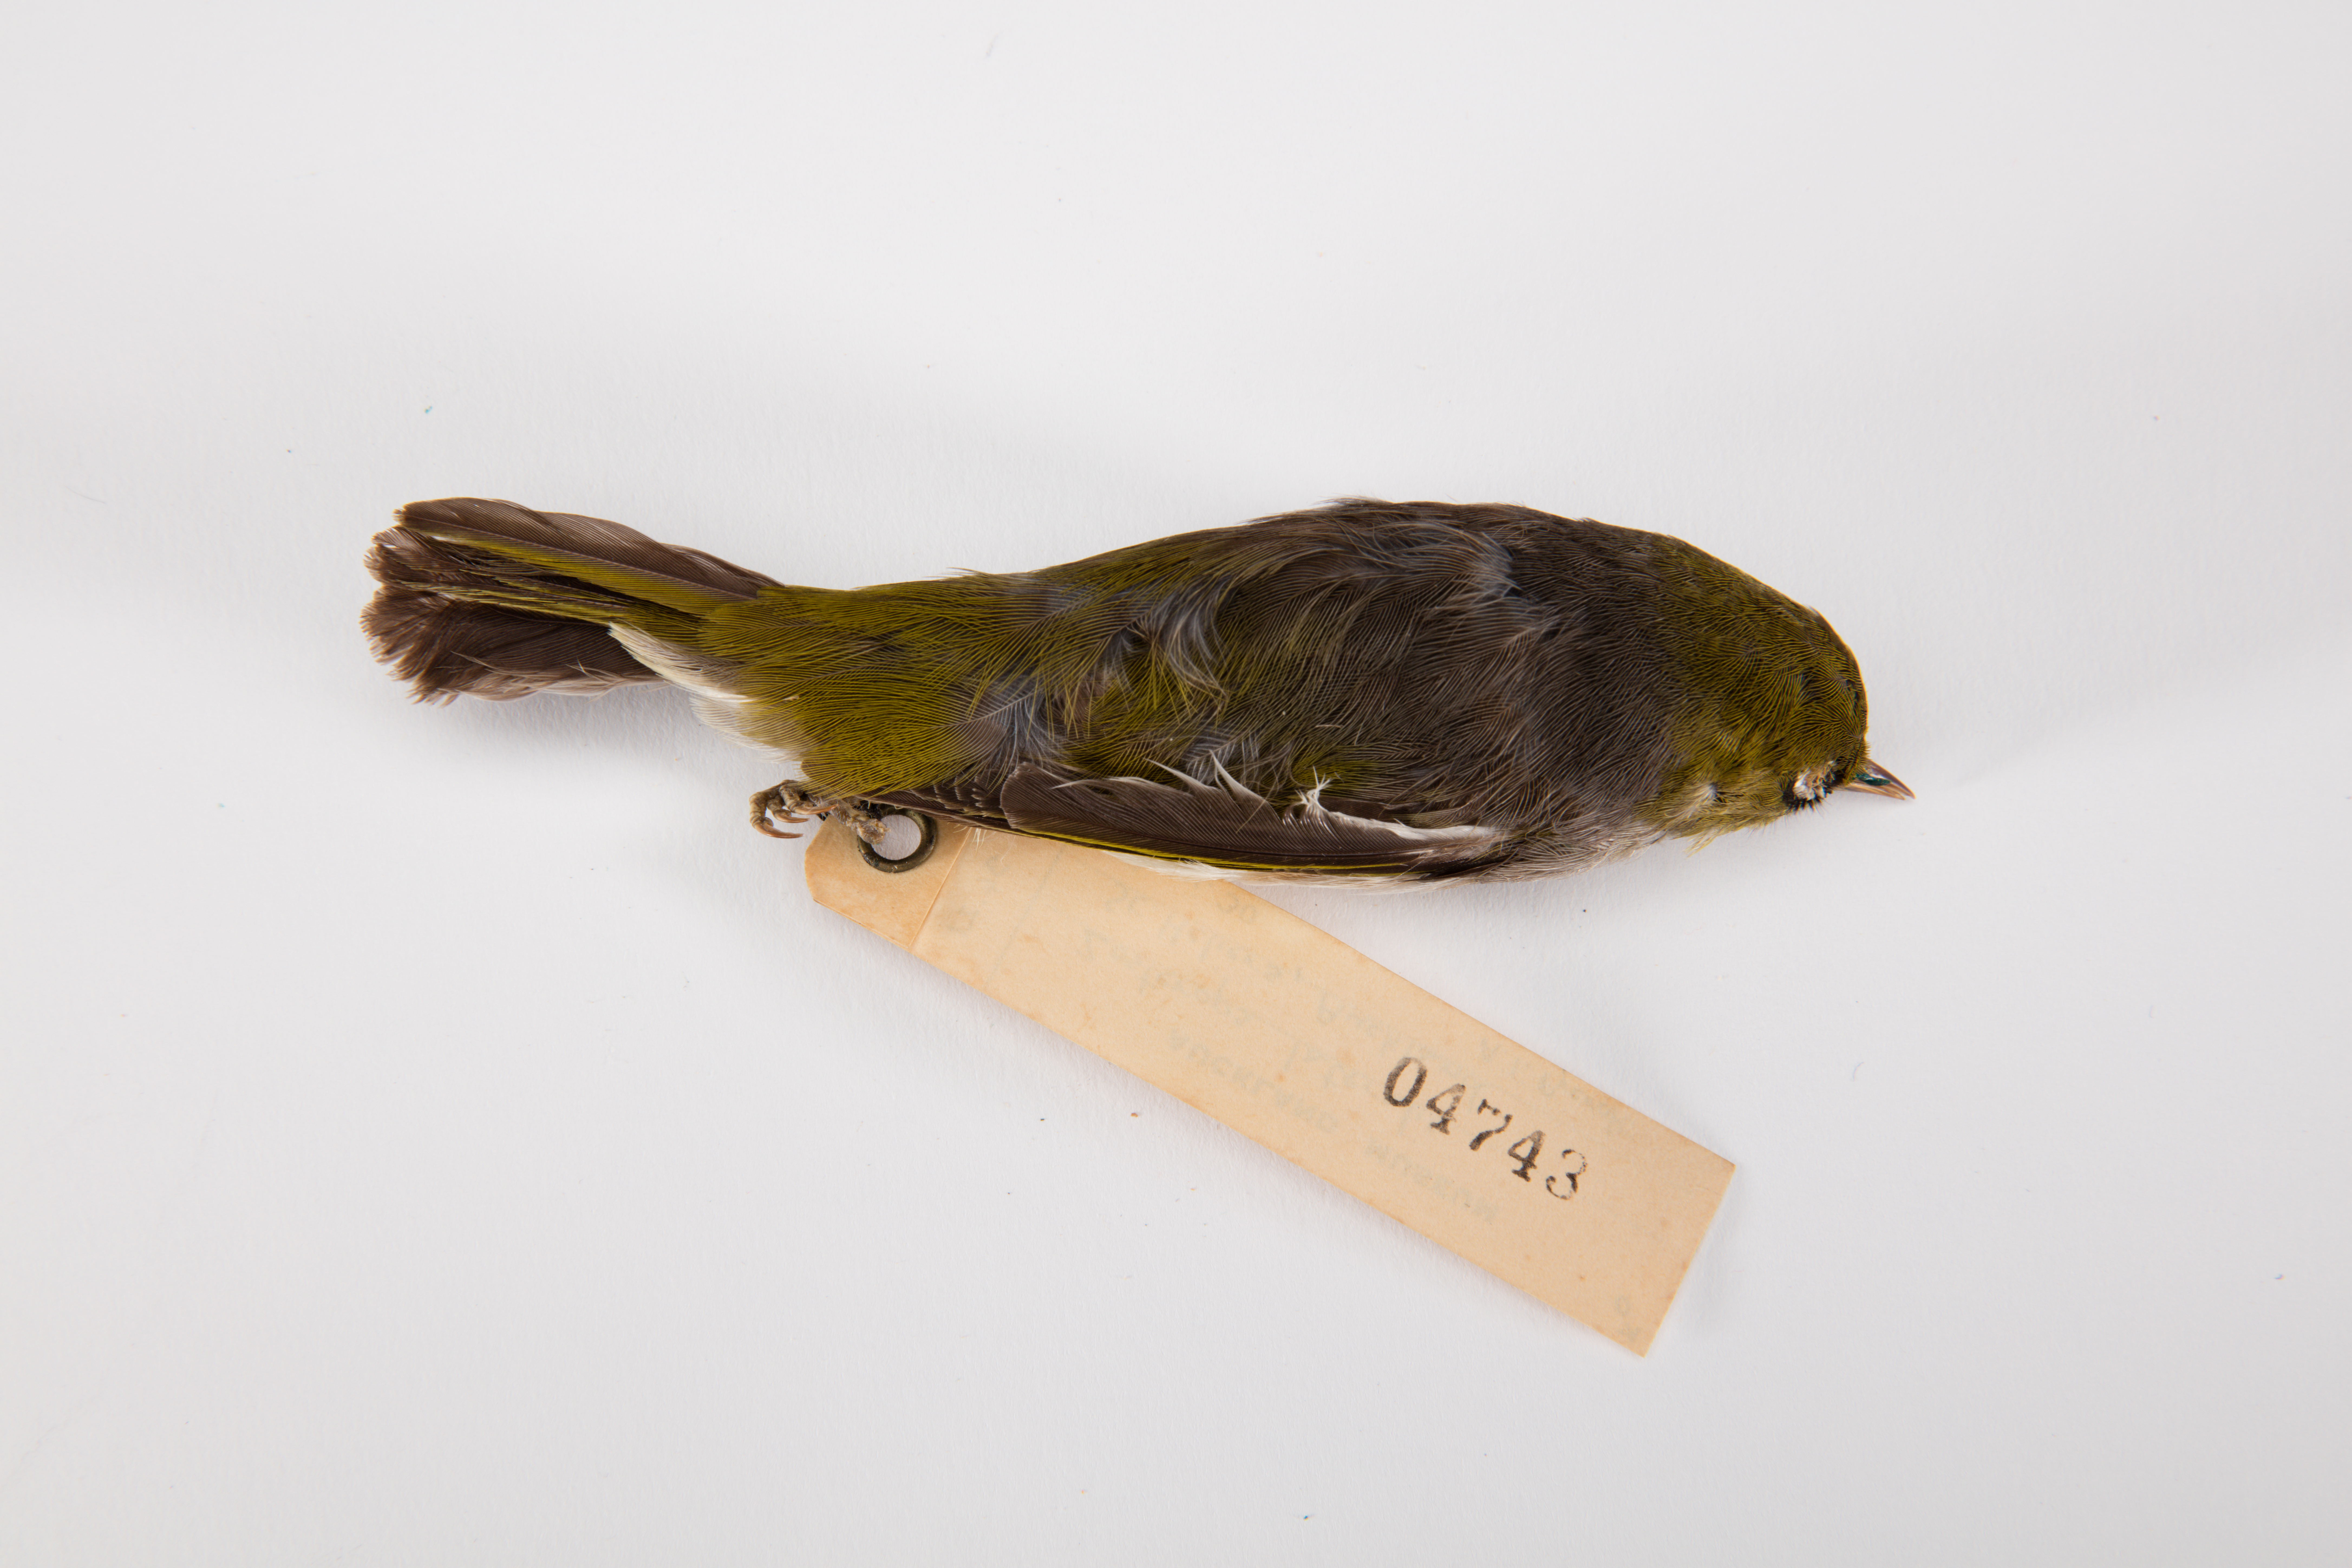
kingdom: Animalia
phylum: Chordata
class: Aves
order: Passeriformes
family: Zosteropidae
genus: Zosterops
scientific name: Zosterops lateralis
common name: Silvereye
